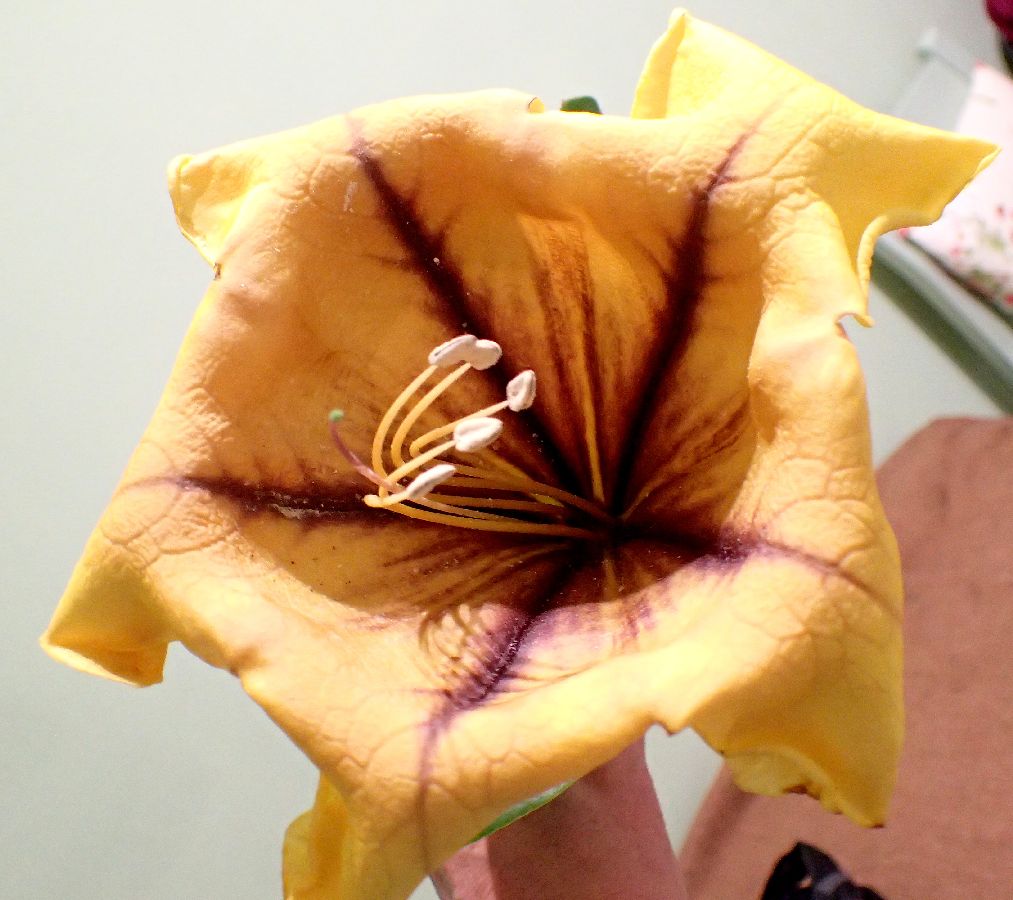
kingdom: Plantae
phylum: Tracheophyta
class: Magnoliopsida
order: Solanales
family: Solanaceae
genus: Solandra
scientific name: Solandra grandiflora
